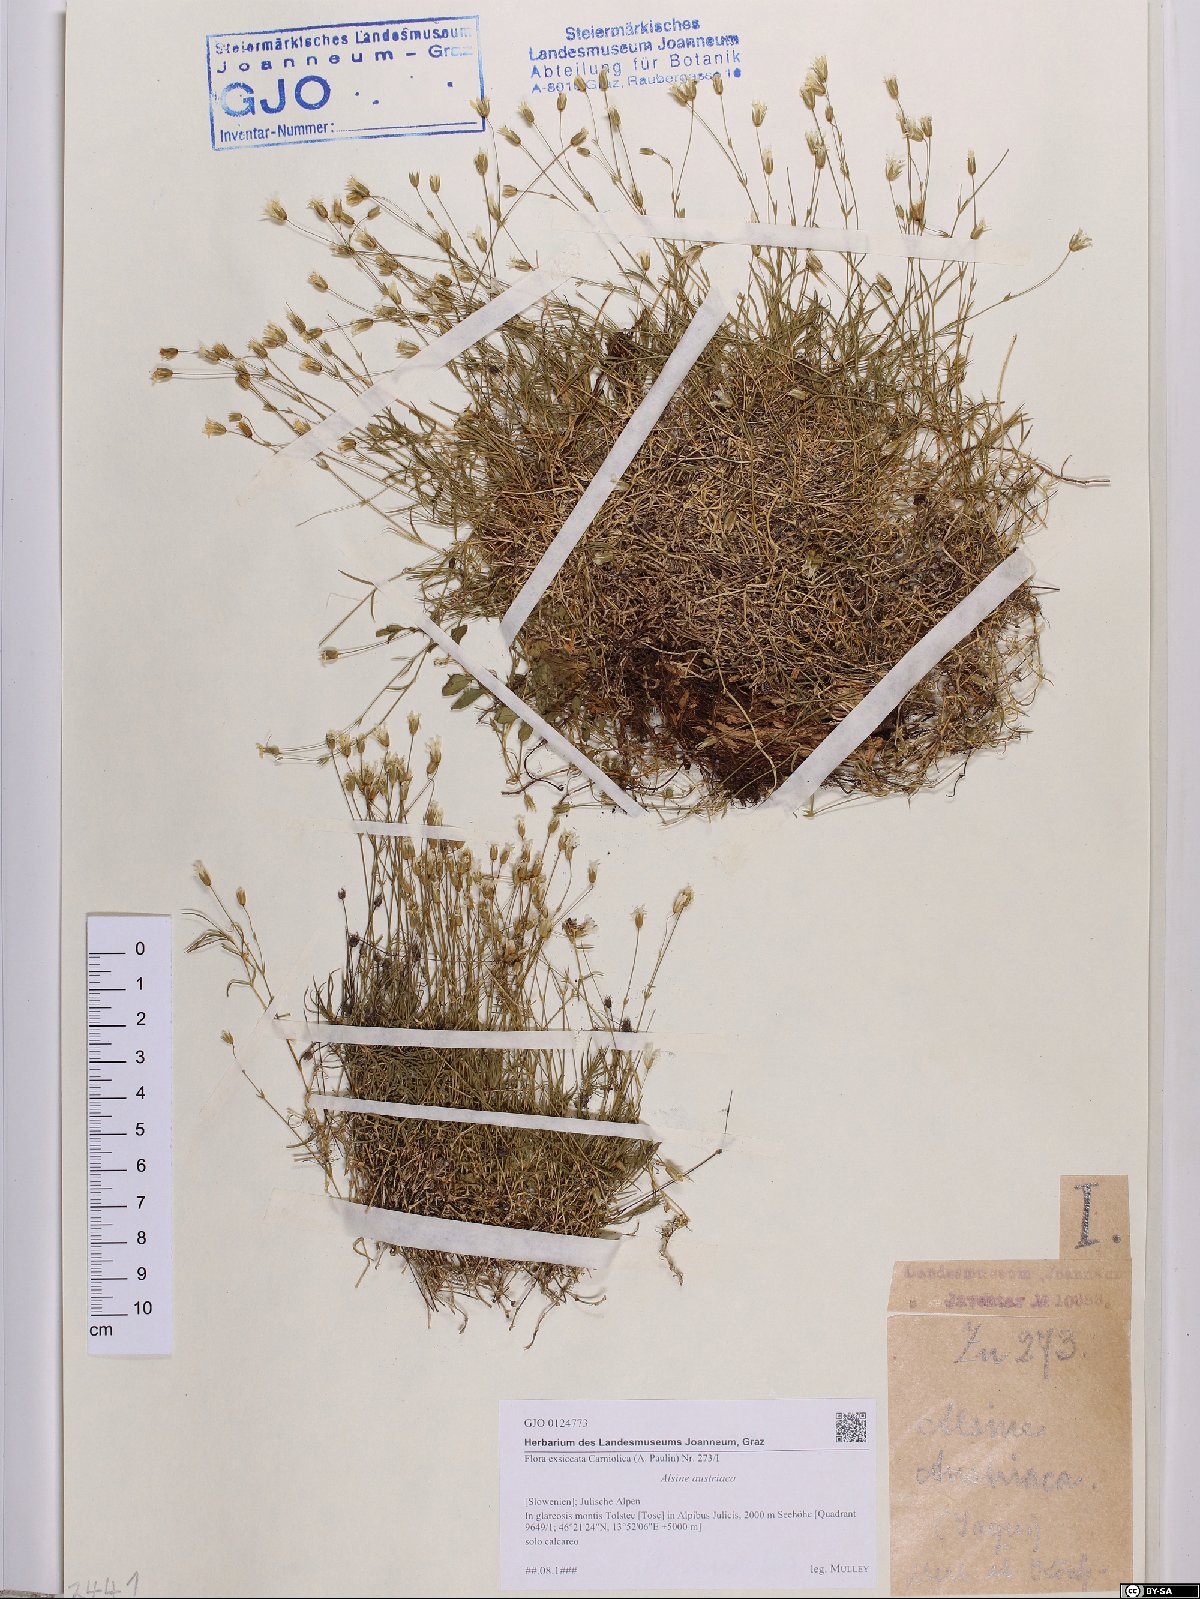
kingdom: Plantae
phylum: Tracheophyta
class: Magnoliopsida
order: Caryophyllales
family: Caryophyllaceae
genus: Sabulina
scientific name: Sabulina austriaca
